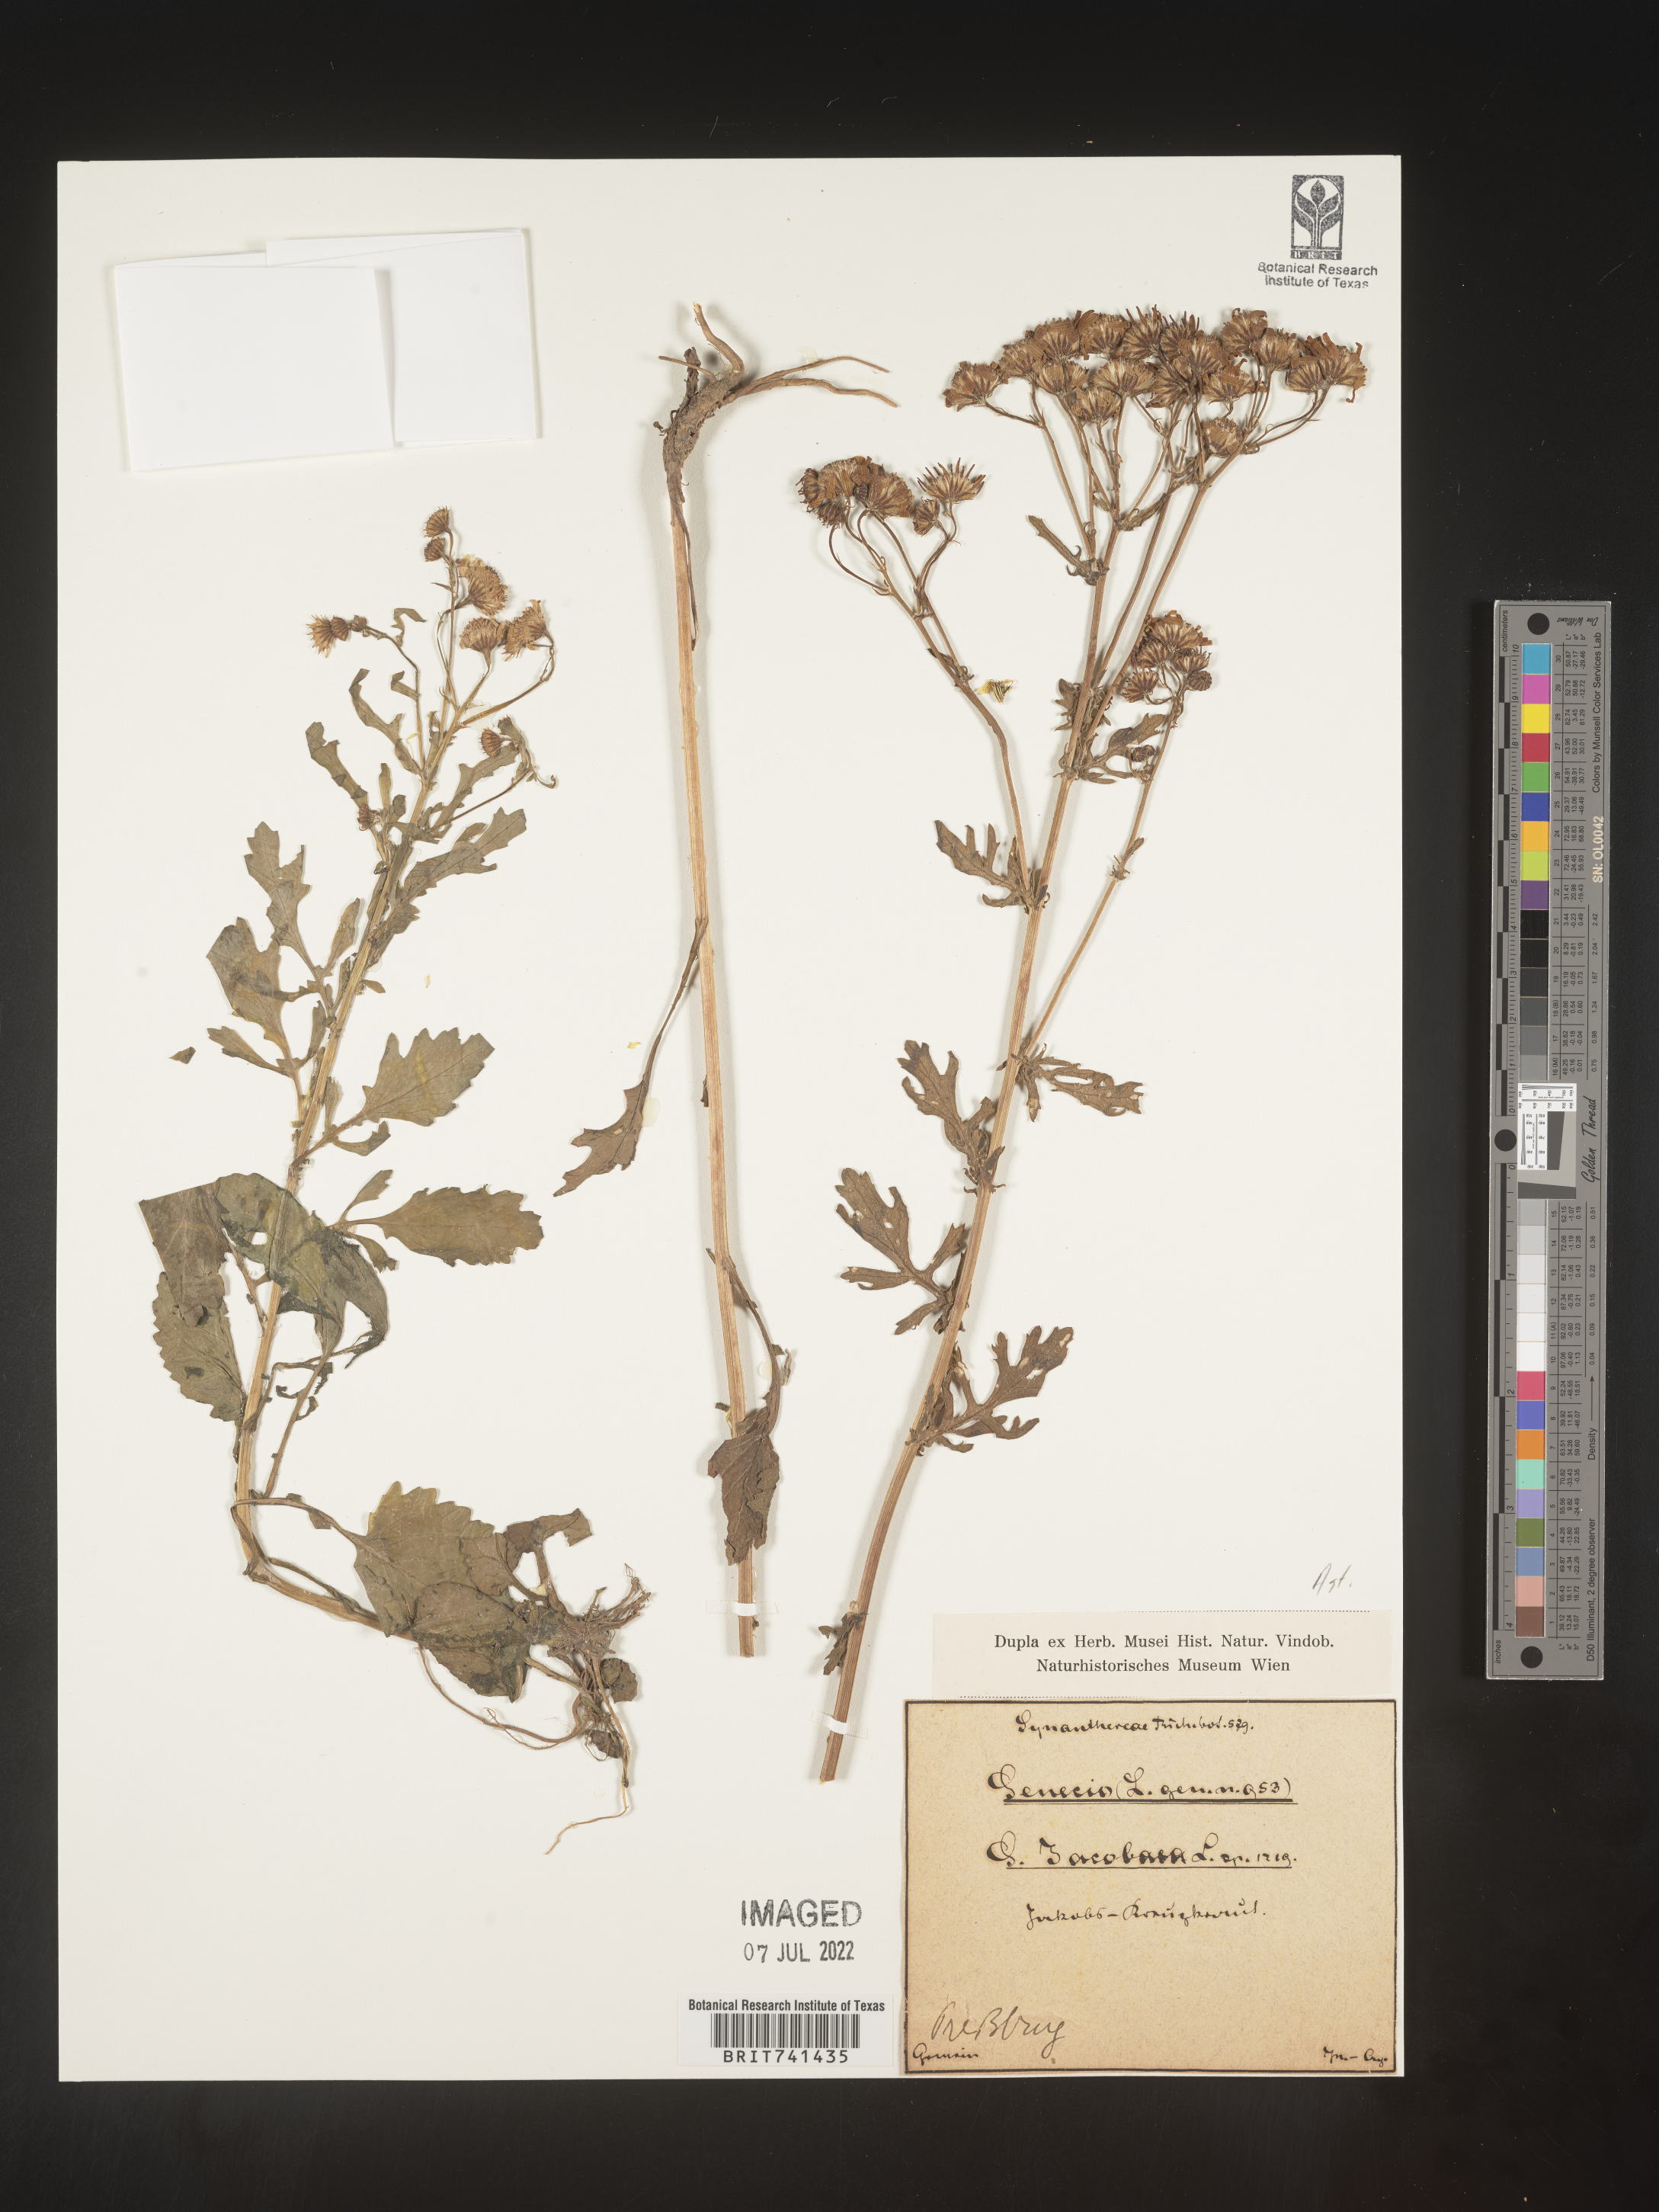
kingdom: Plantae
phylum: Tracheophyta
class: Magnoliopsida
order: Asterales
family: Asteraceae
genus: Senecio
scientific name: Senecio
